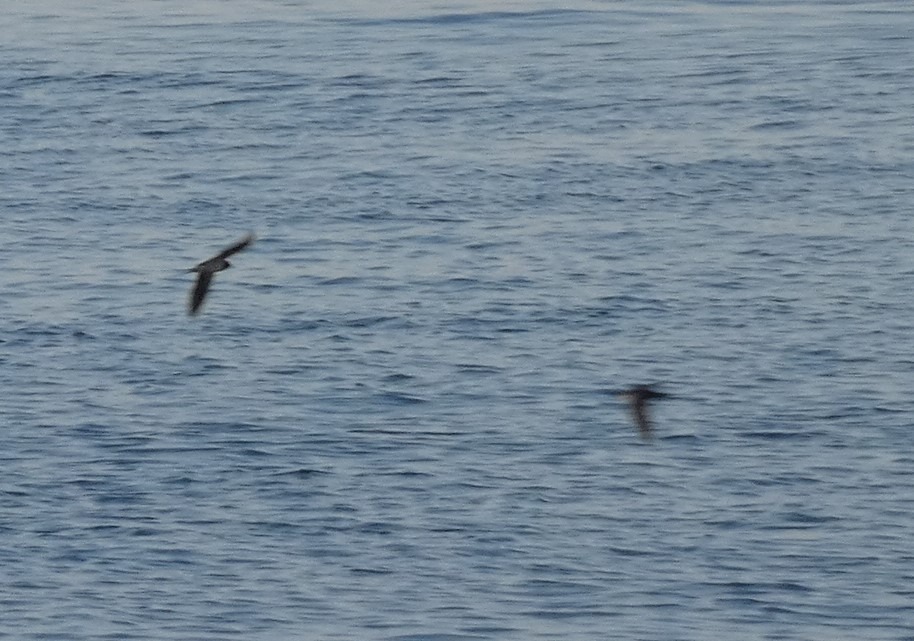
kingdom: Animalia
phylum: Chordata
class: Aves
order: Passeriformes
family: Hirundinidae
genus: Hirundo
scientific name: Hirundo rustica
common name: Landsvale
